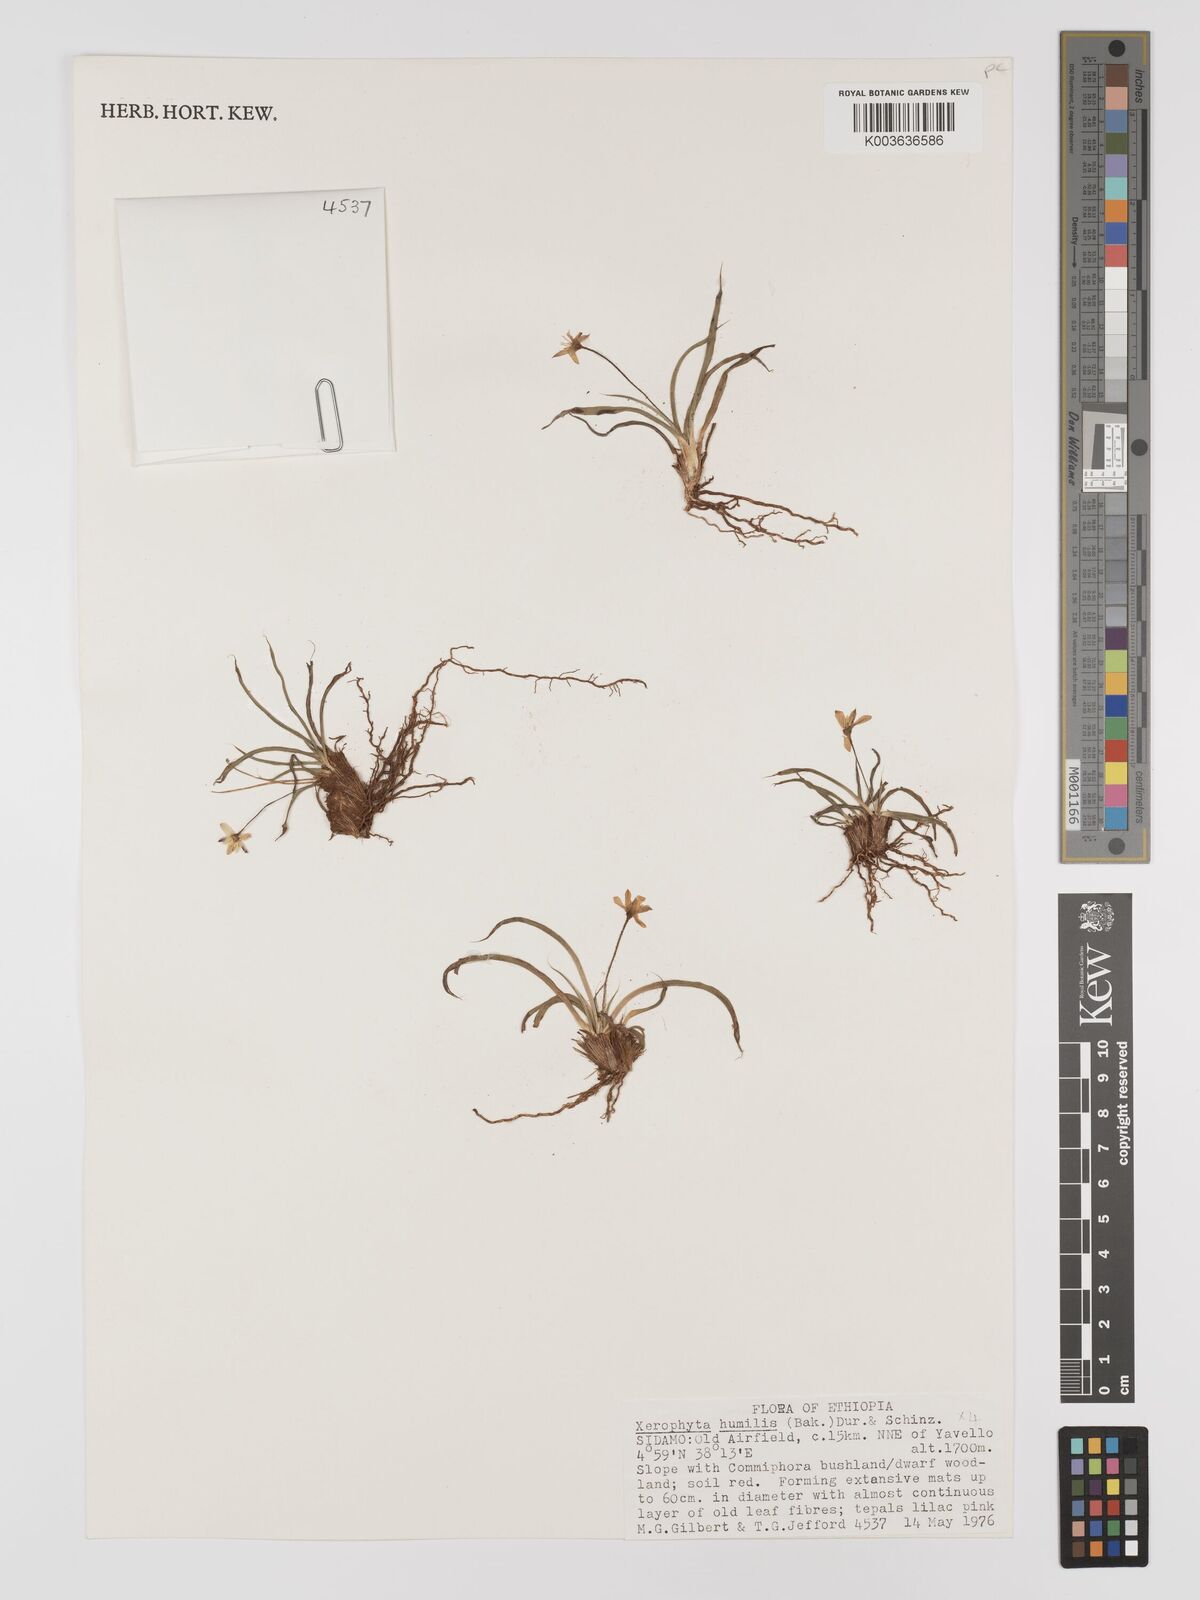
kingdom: Plantae
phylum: Tracheophyta
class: Liliopsida
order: Pandanales
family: Velloziaceae
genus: Xerophyta
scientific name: Xerophyta humilis
